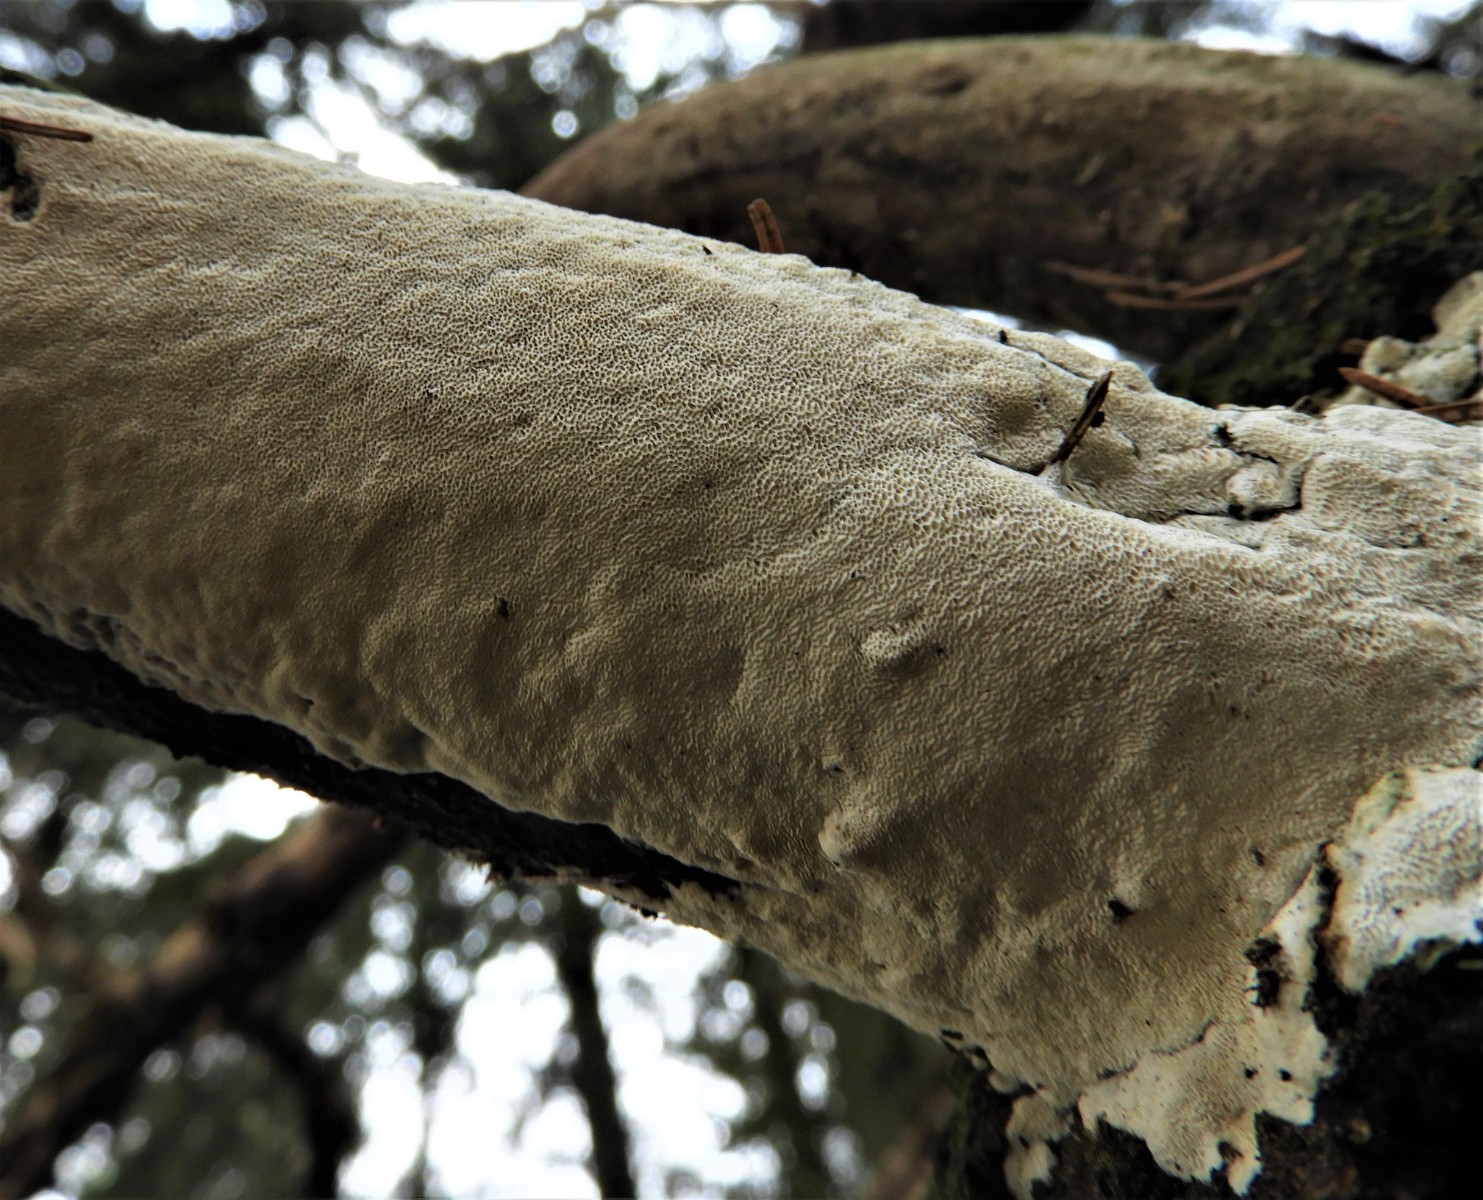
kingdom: Fungi
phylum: Basidiomycota
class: Agaricomycetes
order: Polyporales
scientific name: Polyporales
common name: poresvampordenen
